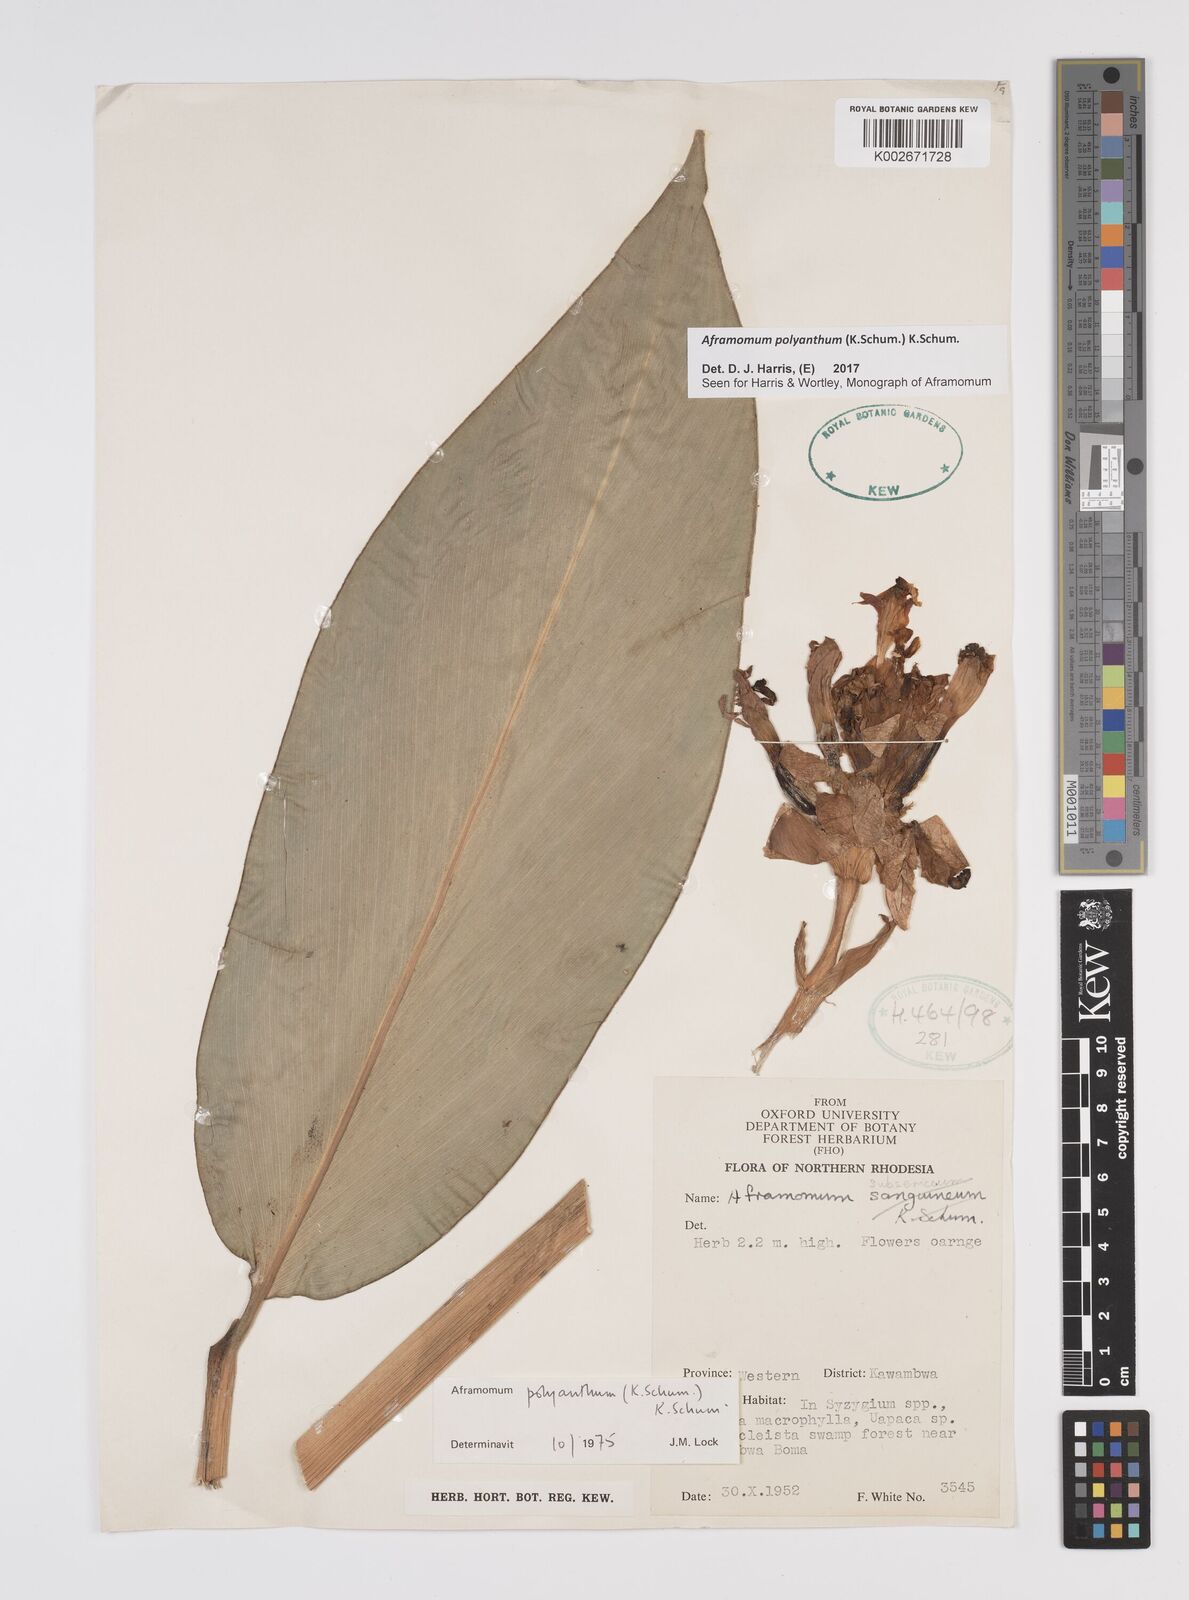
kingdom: Plantae
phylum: Tracheophyta
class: Liliopsida
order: Zingiberales
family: Zingiberaceae
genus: Aframomum
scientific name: Aframomum polyanthum
